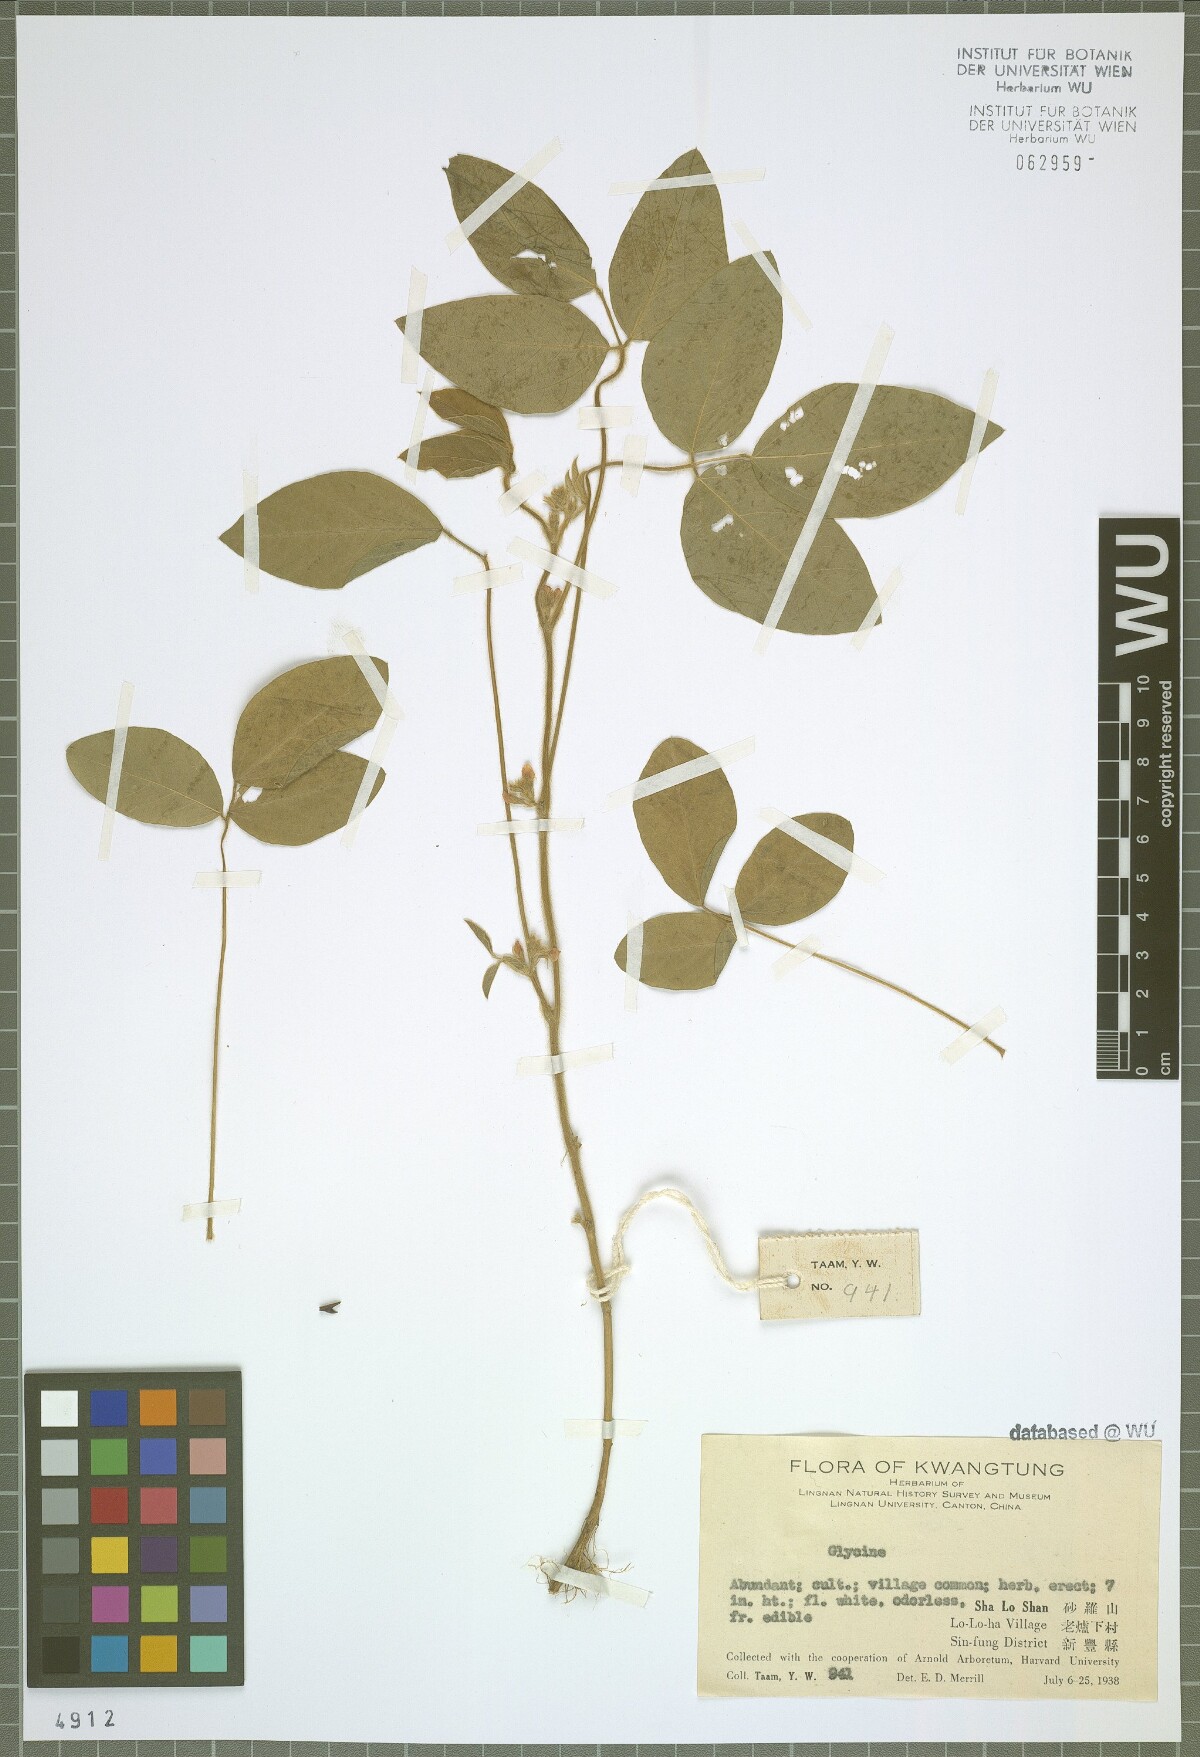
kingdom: Plantae
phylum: Tracheophyta
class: Magnoliopsida
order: Fabales
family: Fabaceae
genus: Glycine
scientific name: Glycine
